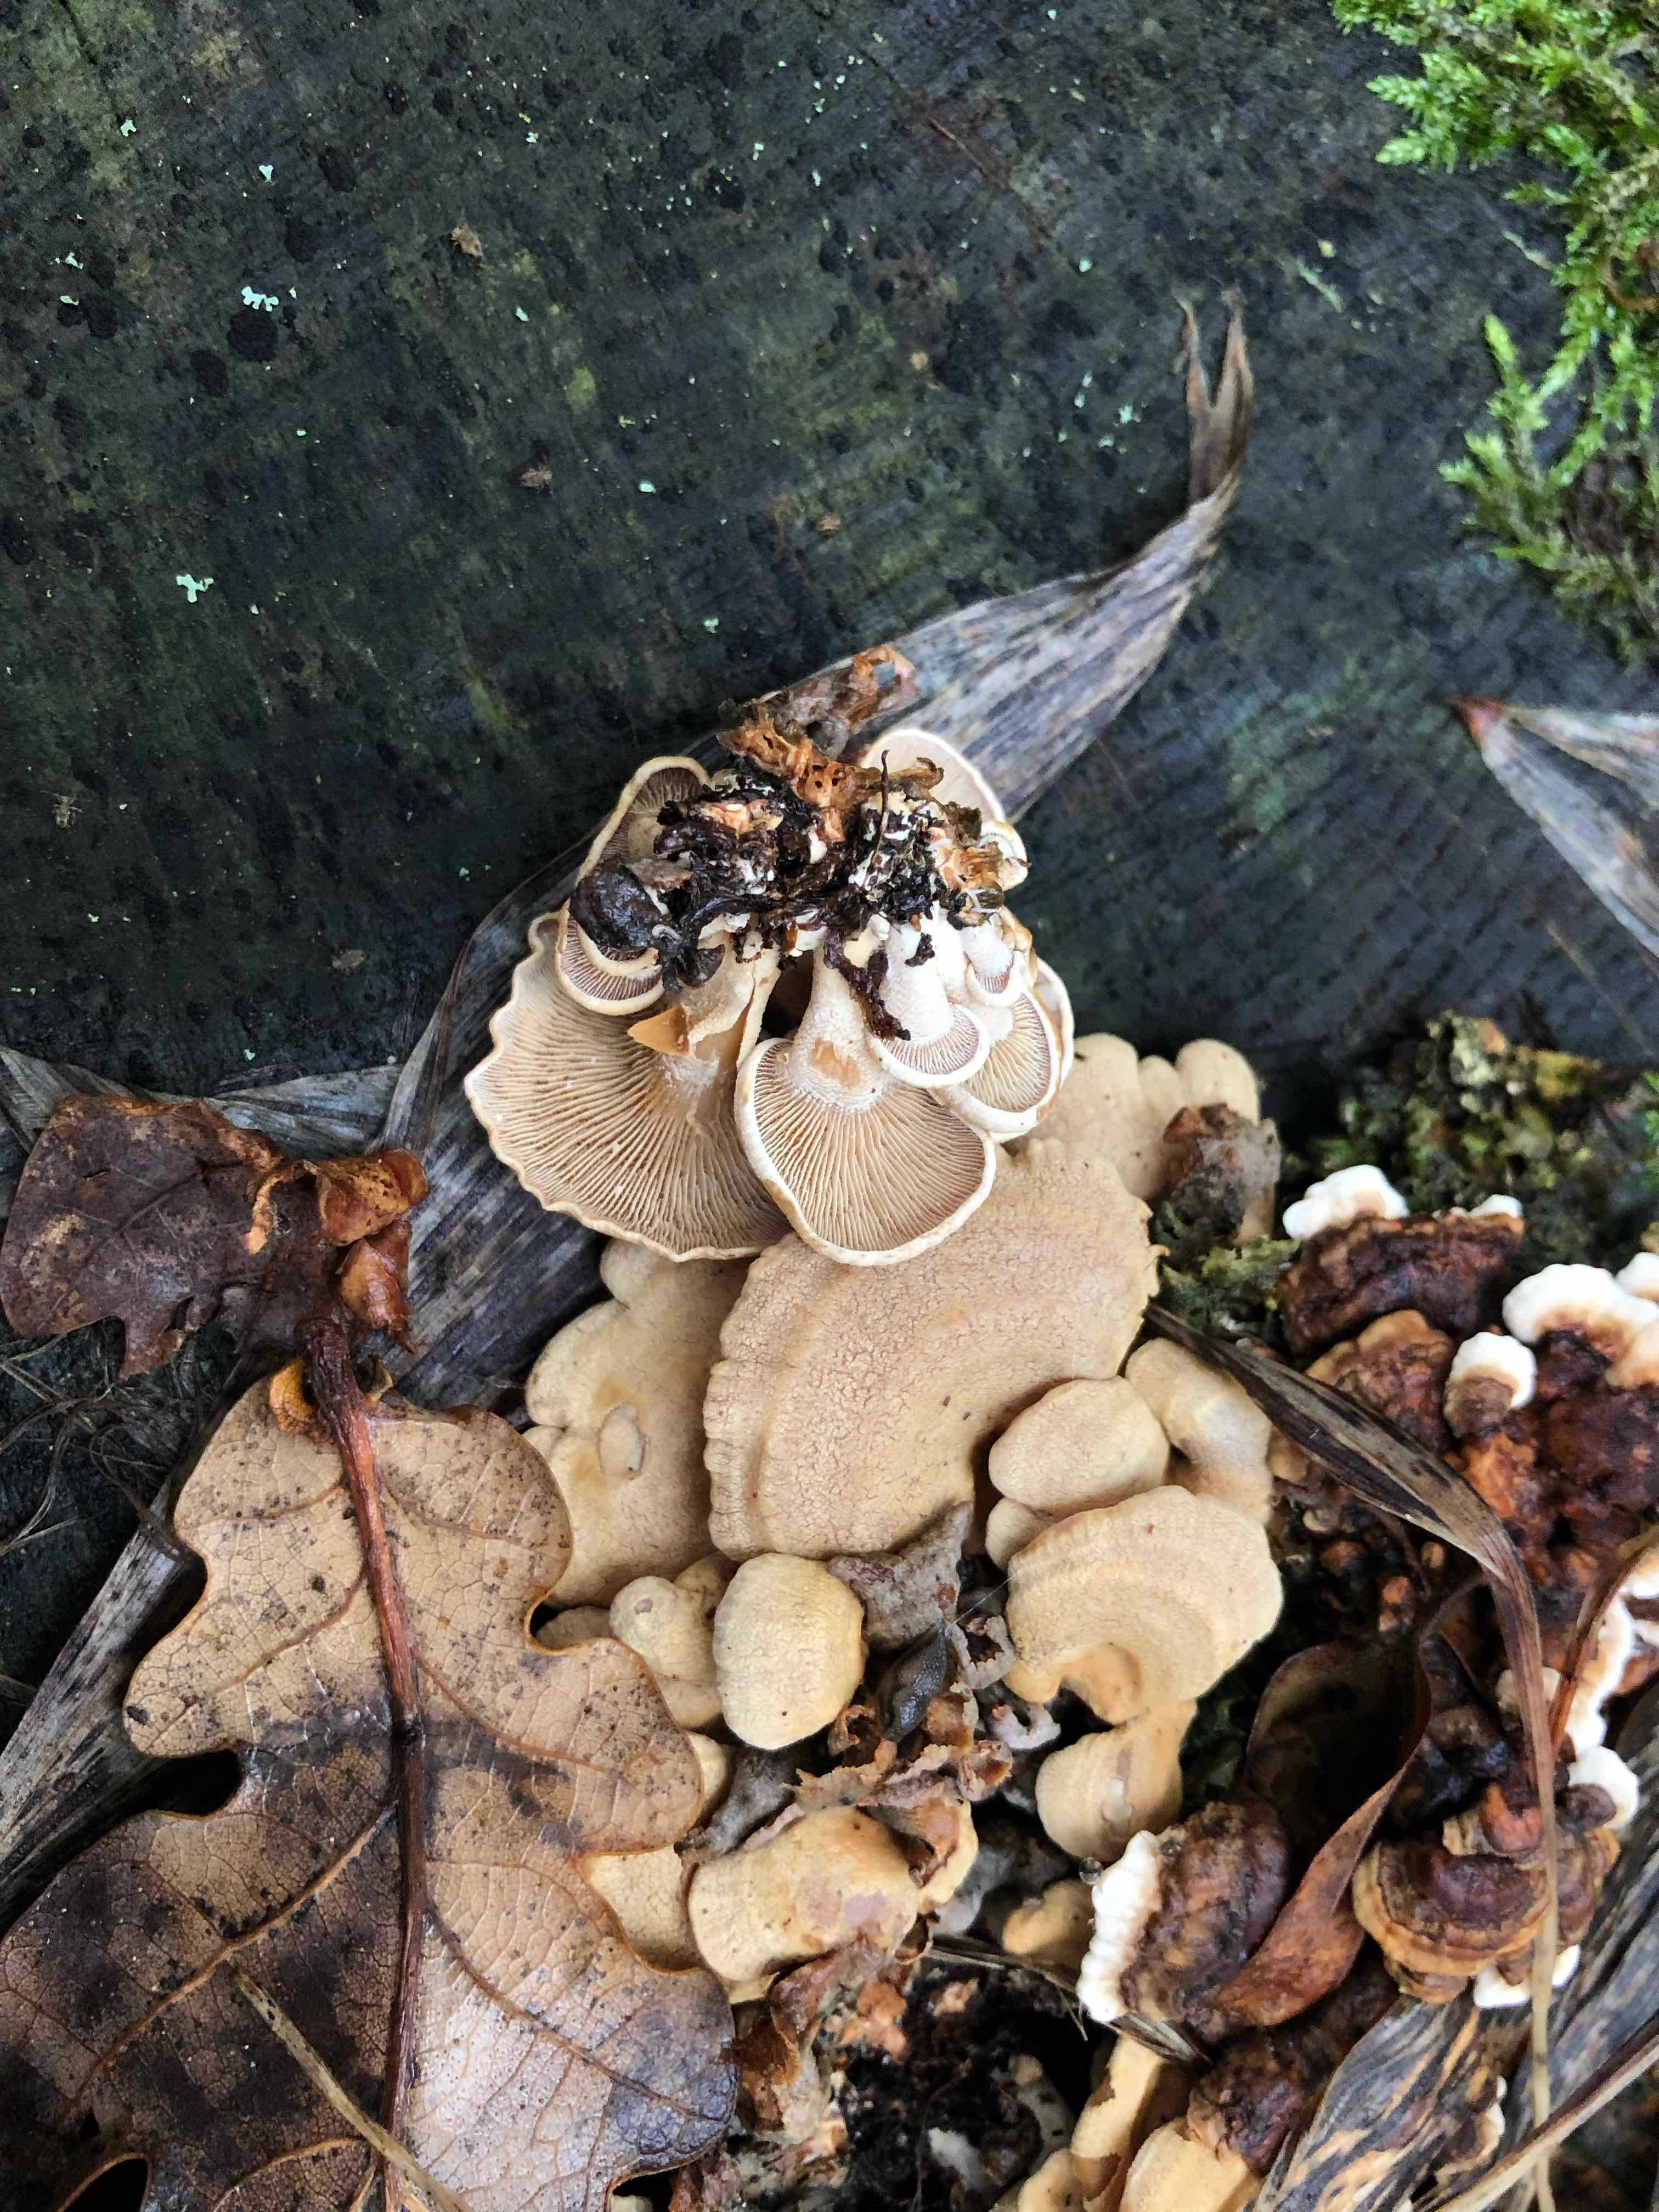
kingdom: Fungi
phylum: Basidiomycota
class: Agaricomycetes
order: Agaricales
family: Mycenaceae
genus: Panellus
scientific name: Panellus stipticus
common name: kliddet epaulethat
